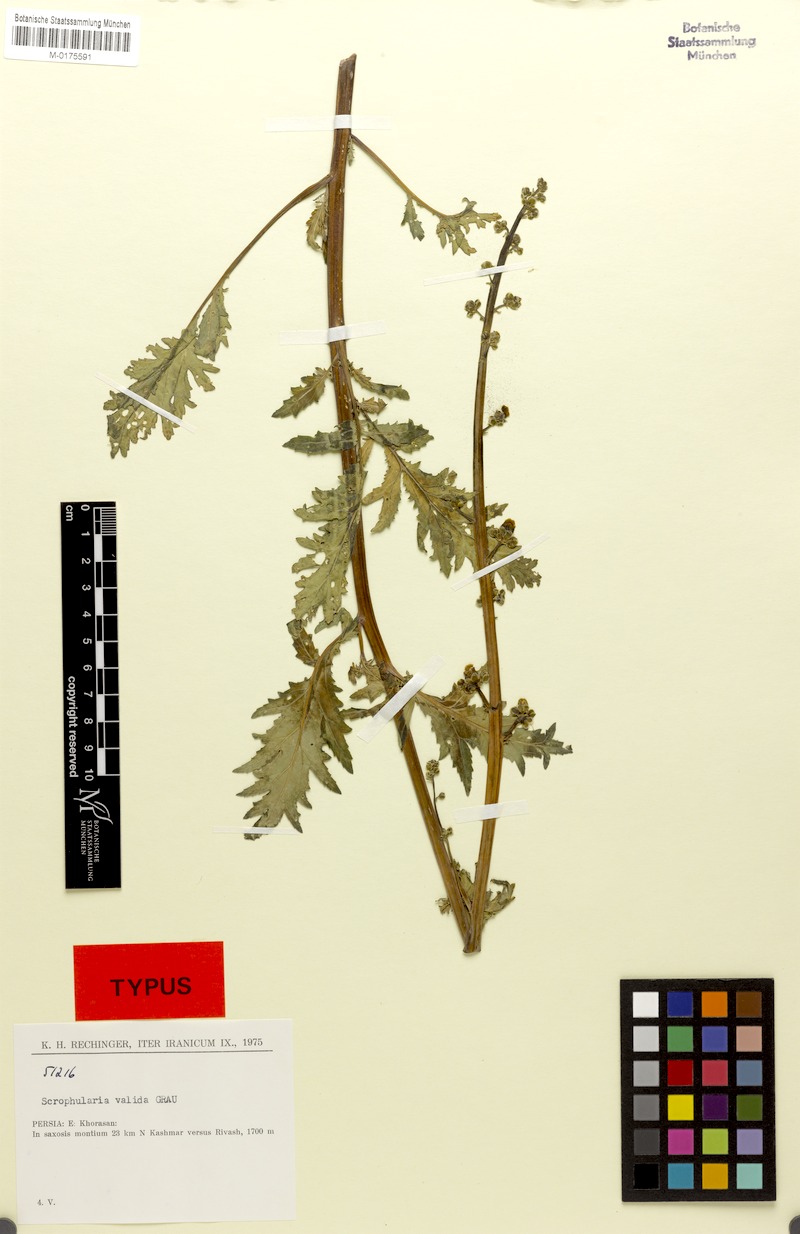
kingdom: Plantae
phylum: Tracheophyta
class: Magnoliopsida
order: Lamiales
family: Scrophulariaceae
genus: Scrophularia
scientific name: Scrophularia valida
